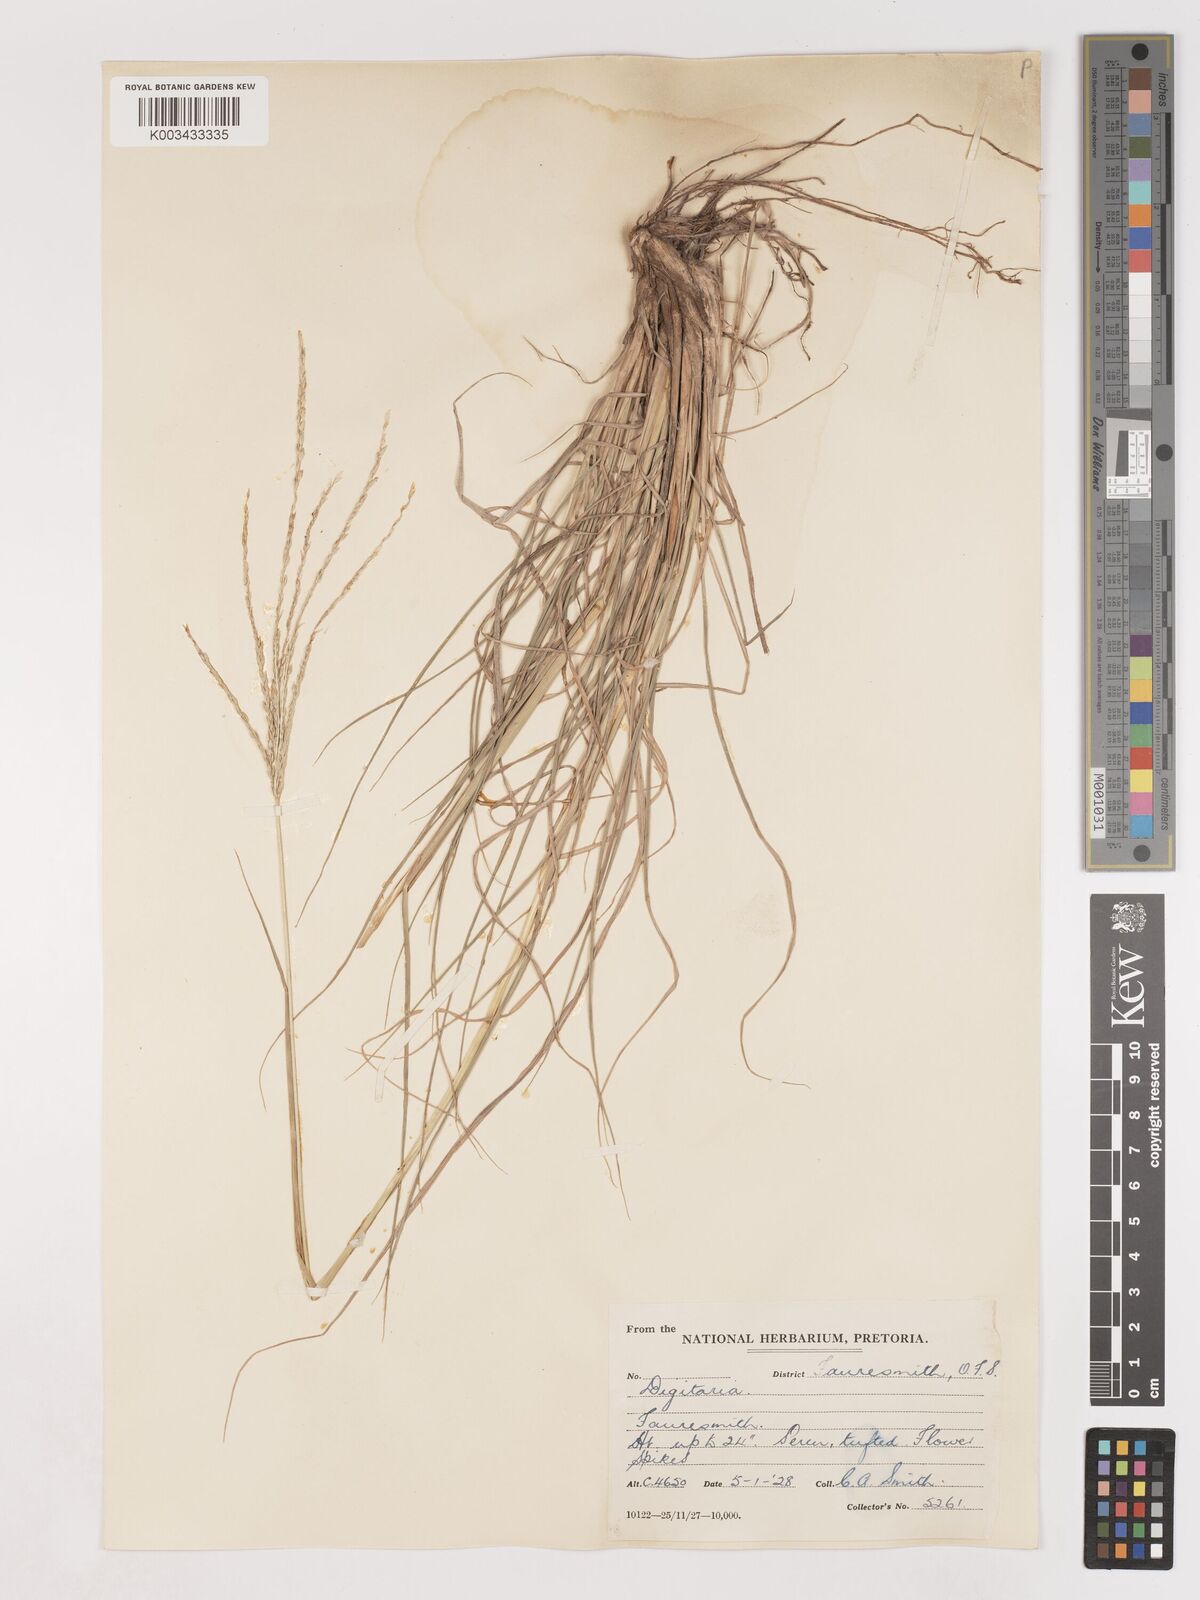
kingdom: Plantae
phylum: Tracheophyta
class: Liliopsida
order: Poales
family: Poaceae
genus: Digitaria
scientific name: Digitaria eriantha
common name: Digitgrass
